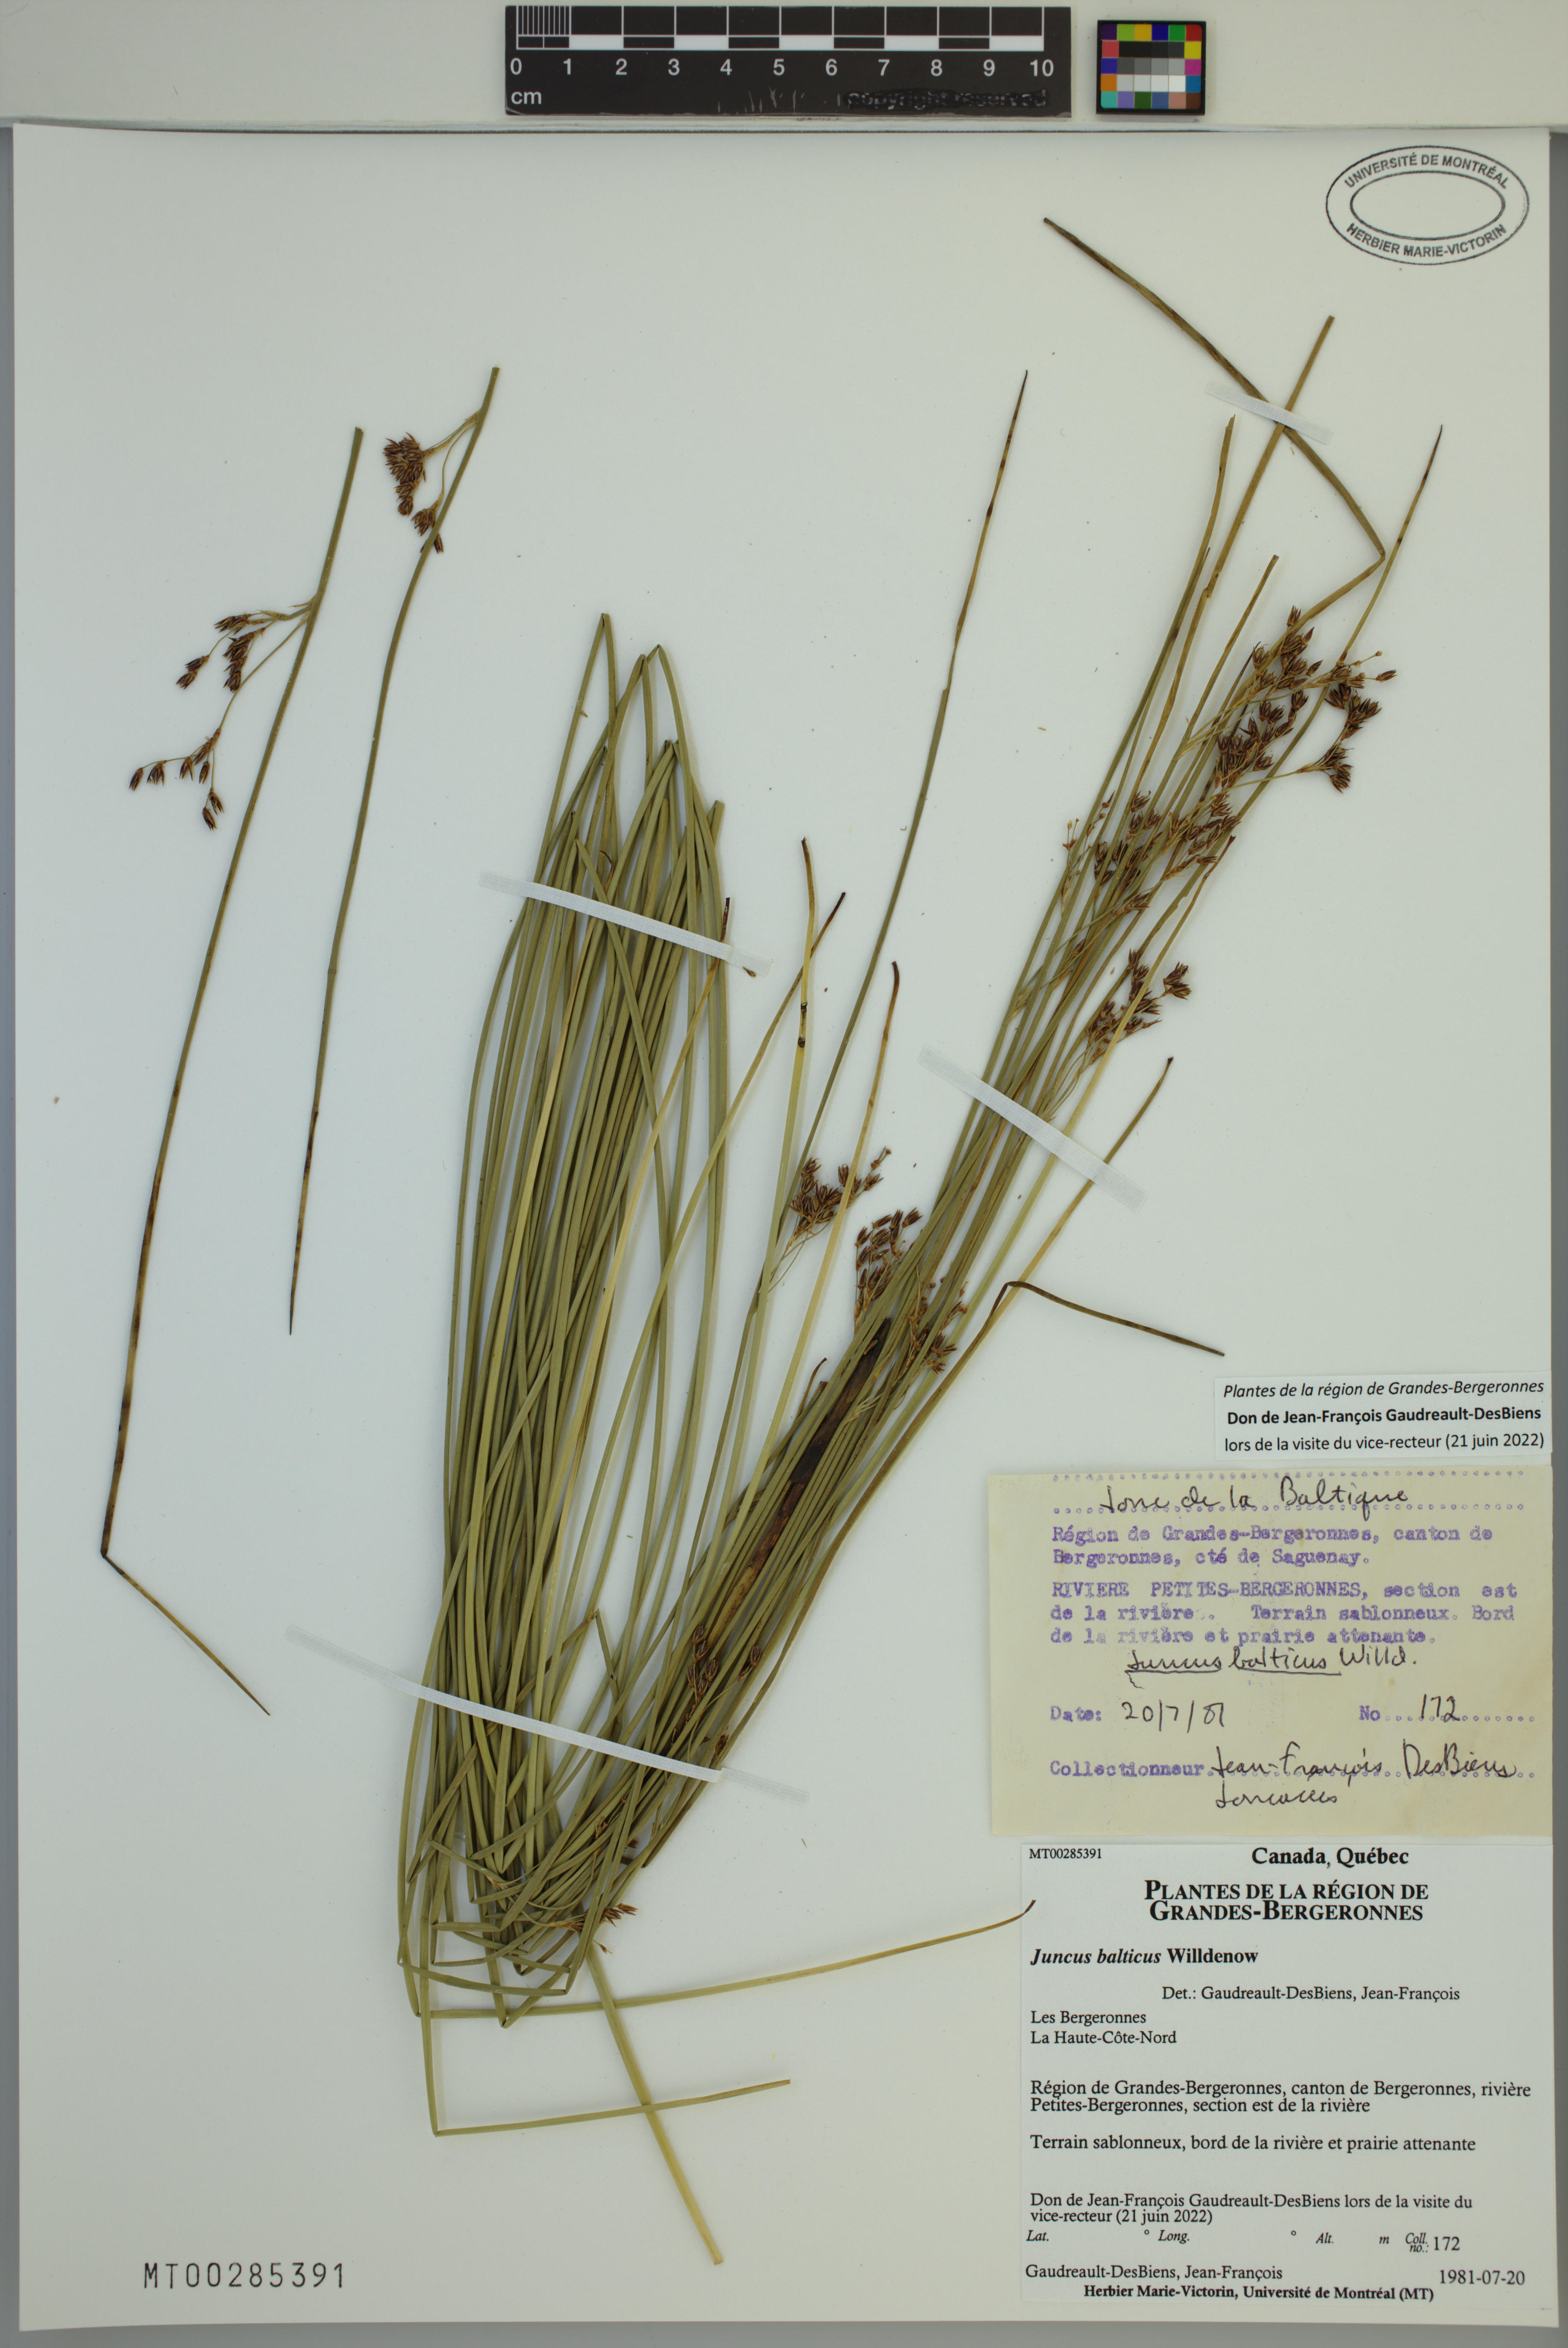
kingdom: Plantae
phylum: Tracheophyta
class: Liliopsida
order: Poales
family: Juncaceae
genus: Juncus
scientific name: Juncus balticus
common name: Baltic rush
